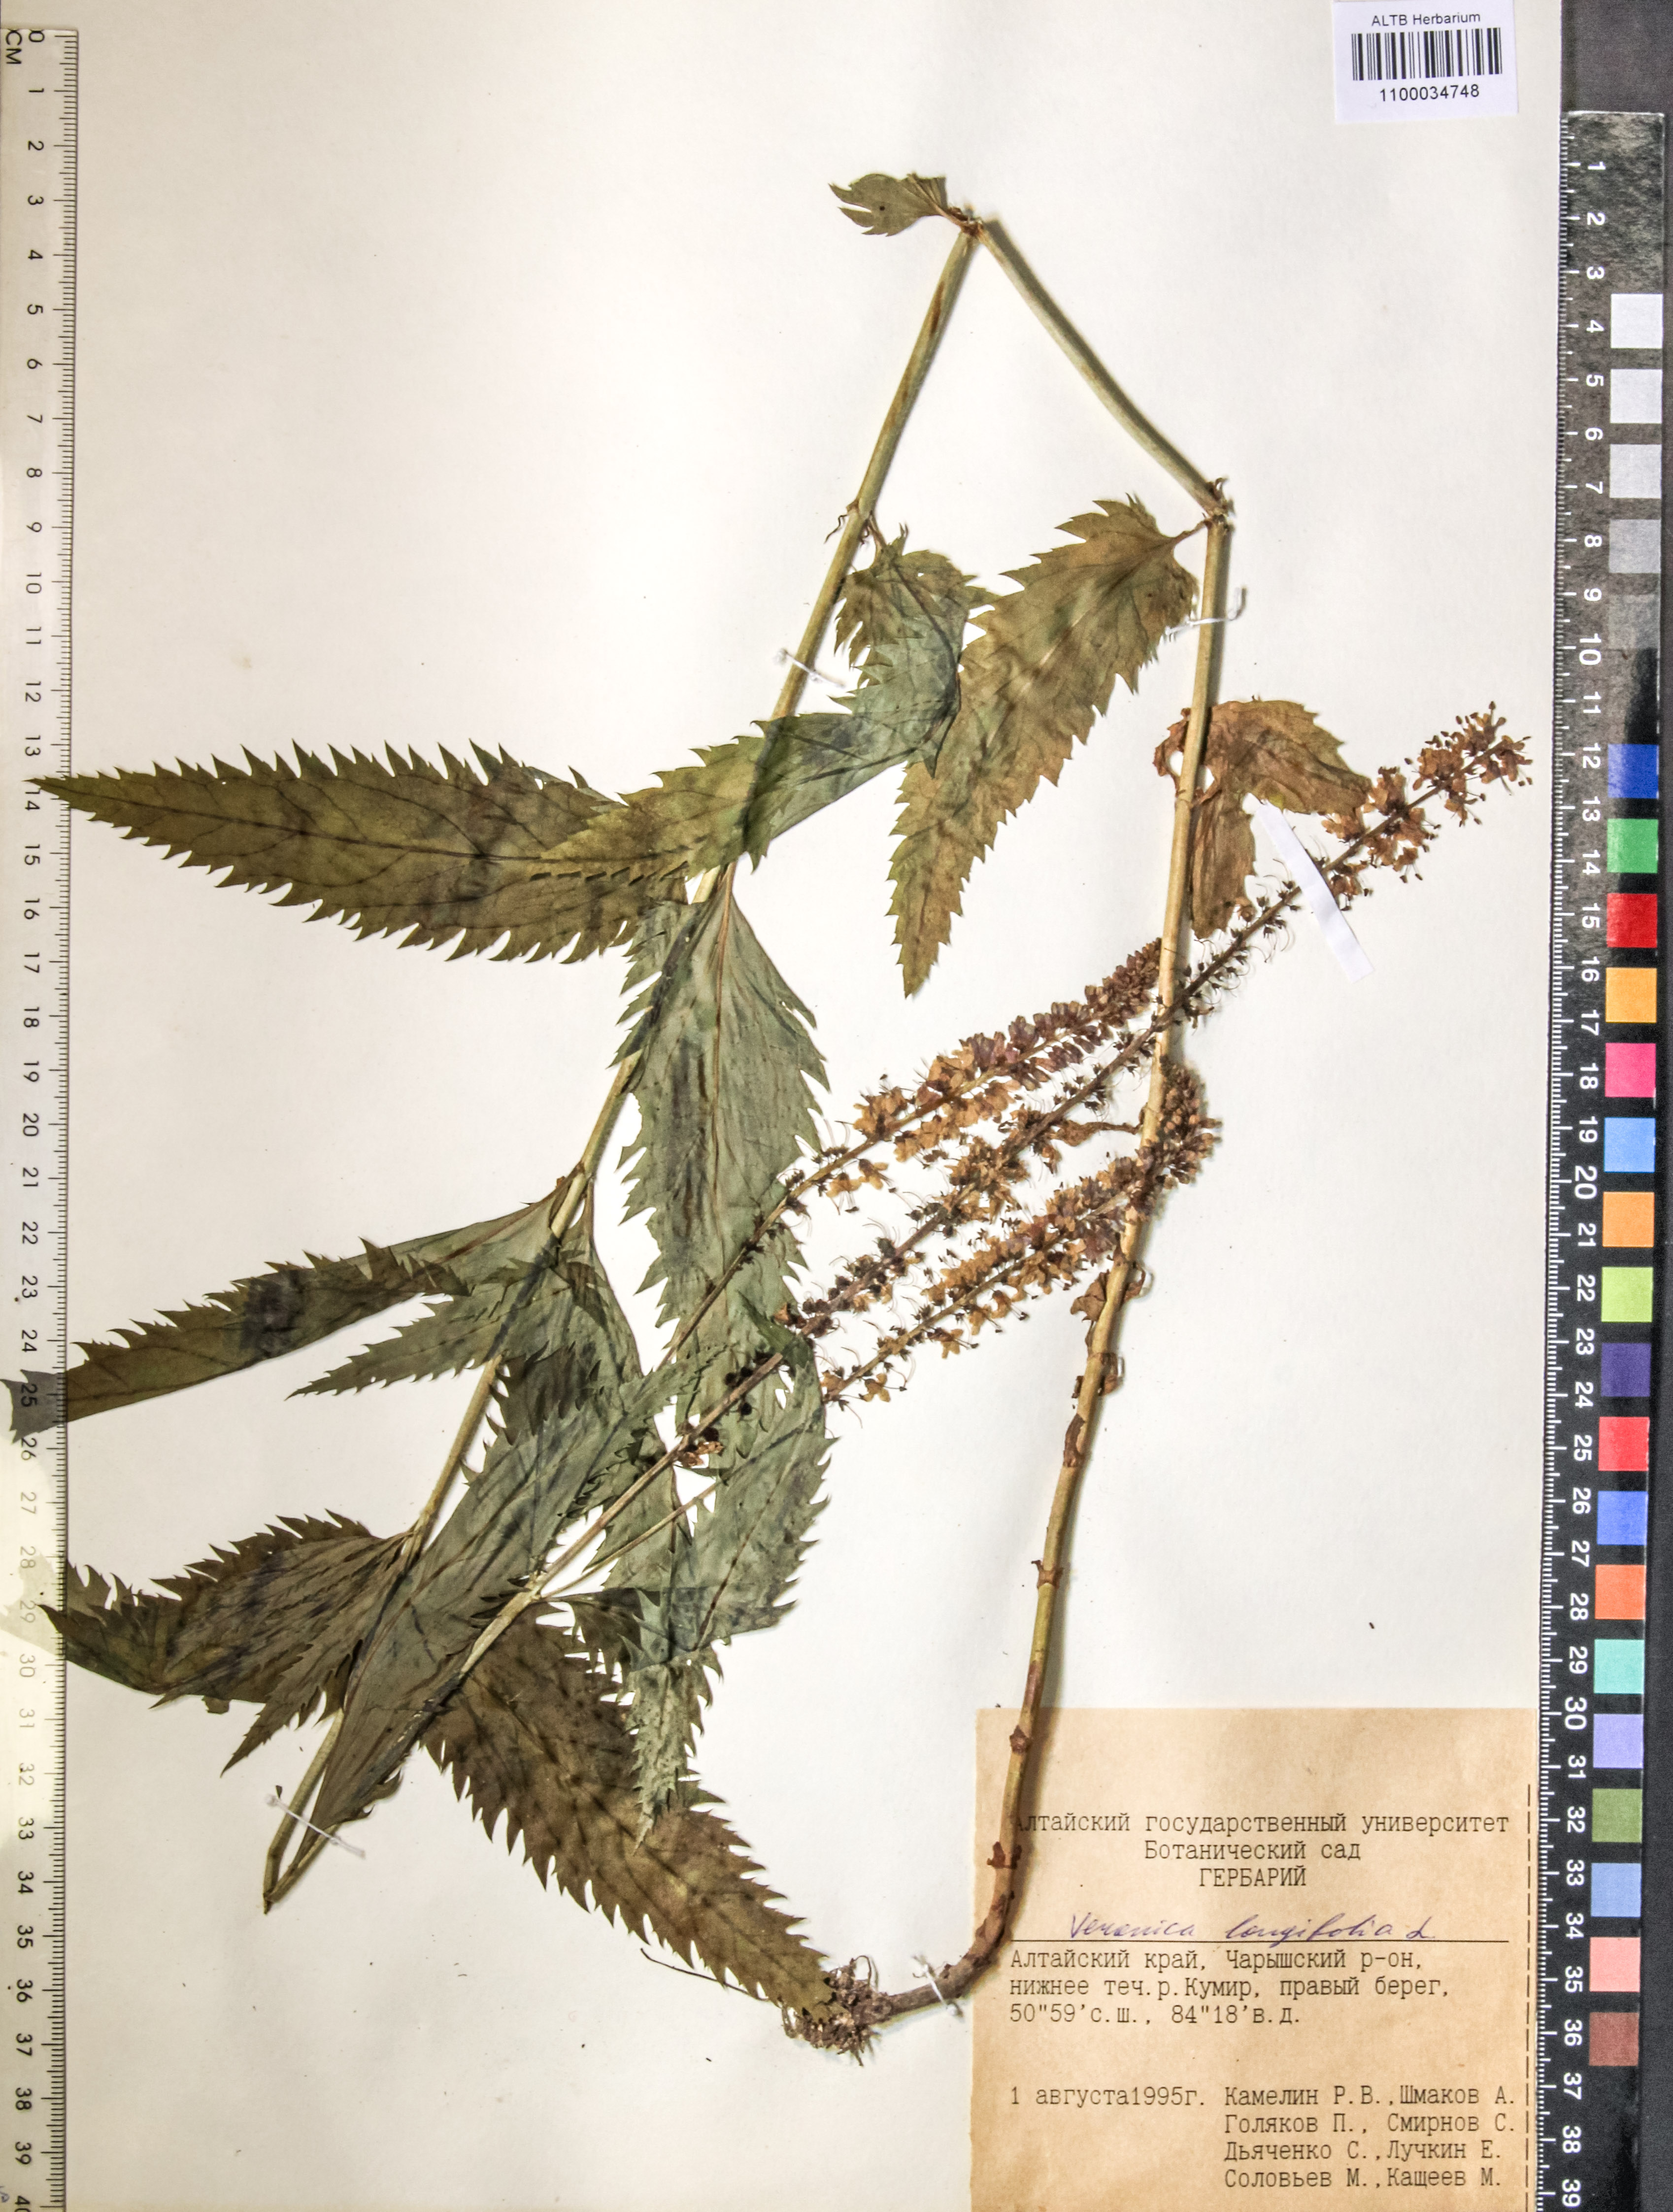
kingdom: Plantae
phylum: Tracheophyta
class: Magnoliopsida
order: Lamiales
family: Plantaginaceae
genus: Veronica
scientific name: Veronica longifolia
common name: Garden speedwell
